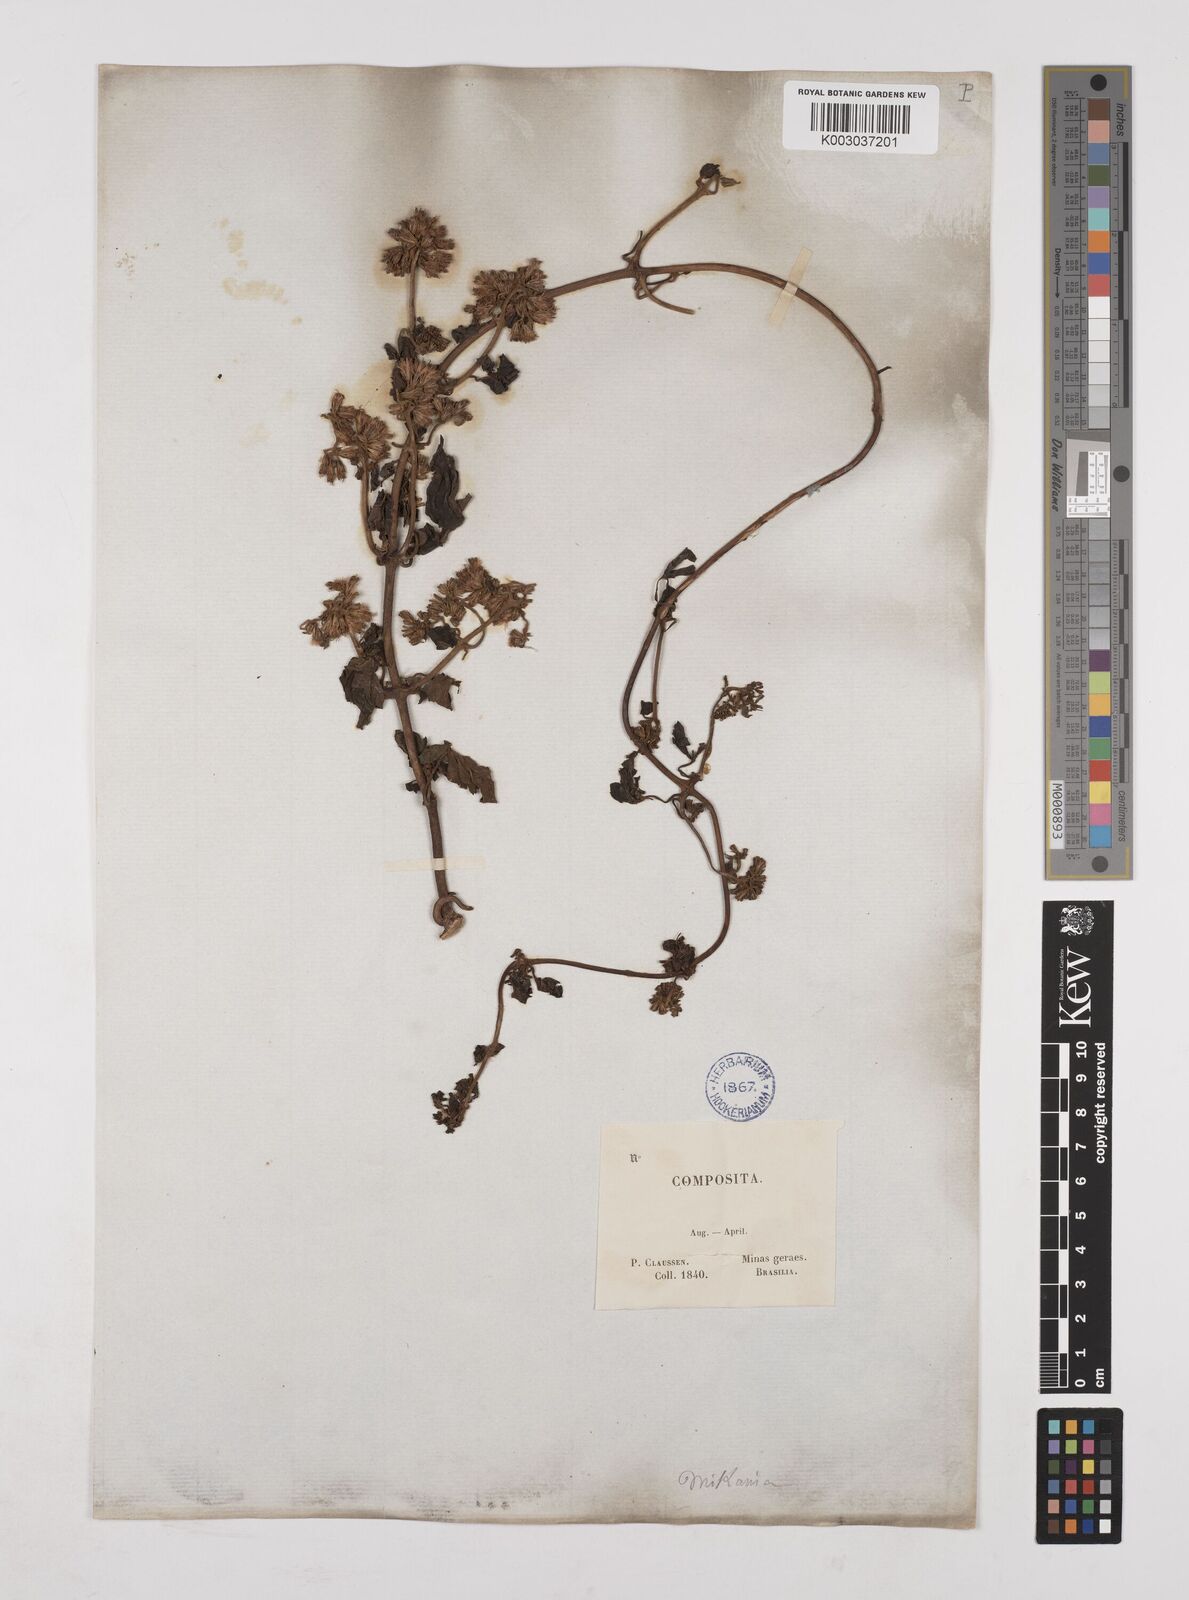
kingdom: Plantae
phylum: Tracheophyta
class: Magnoliopsida
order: Asterales
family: Asteraceae
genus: Mikania
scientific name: Mikania
